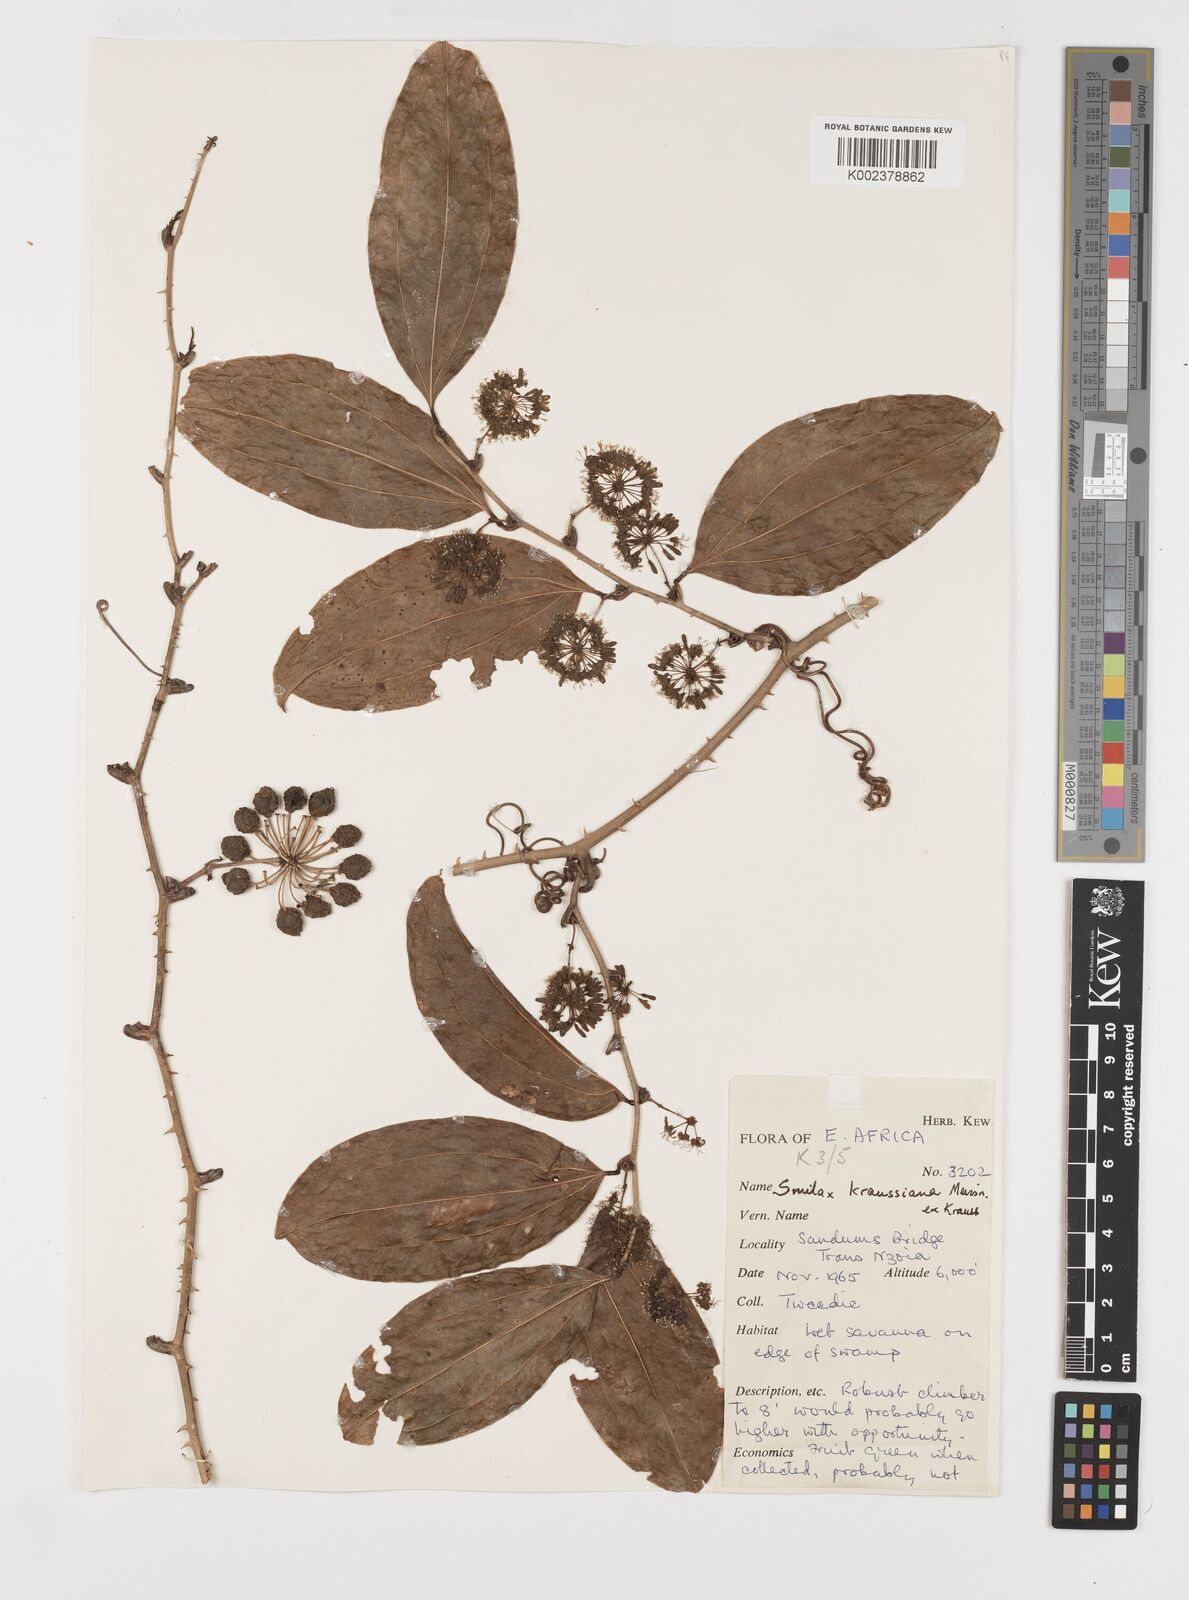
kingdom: Plantae
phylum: Tracheophyta
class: Liliopsida
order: Liliales
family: Smilacaceae
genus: Smilax
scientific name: Smilax anceps
